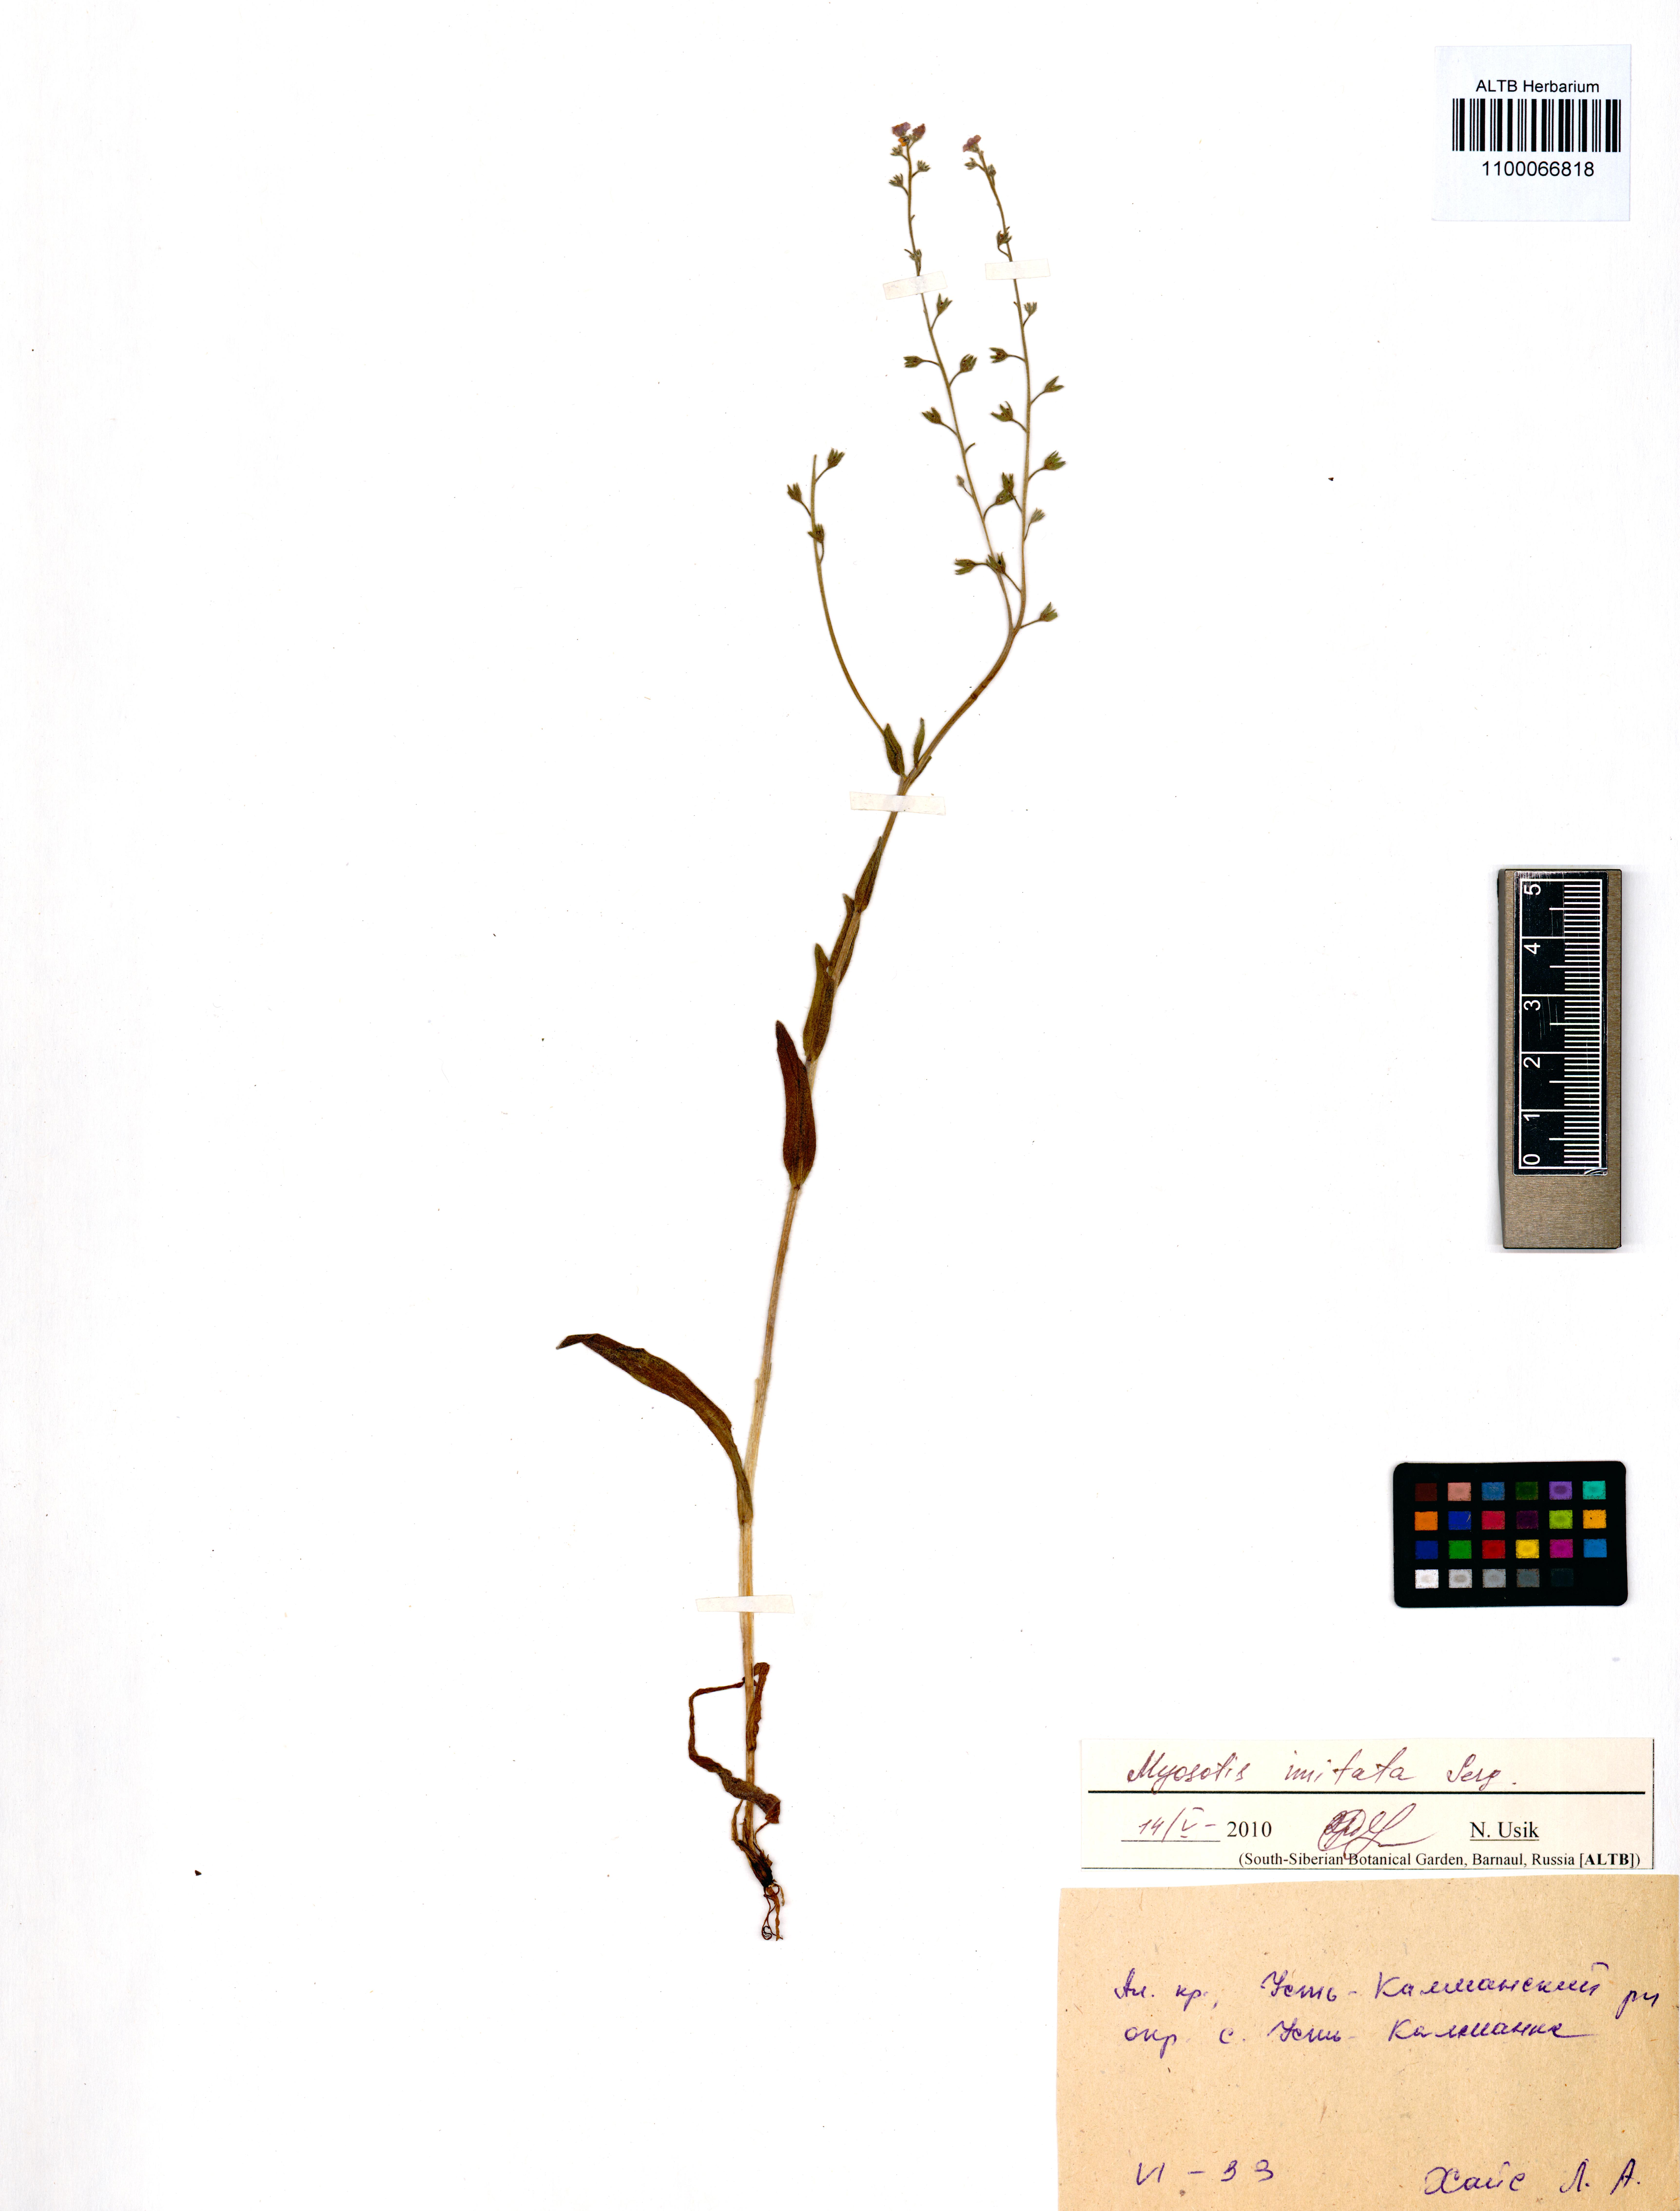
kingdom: Plantae
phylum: Tracheophyta
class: Magnoliopsida
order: Boraginales
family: Boraginaceae
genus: Myosotis
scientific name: Myosotis imitata
